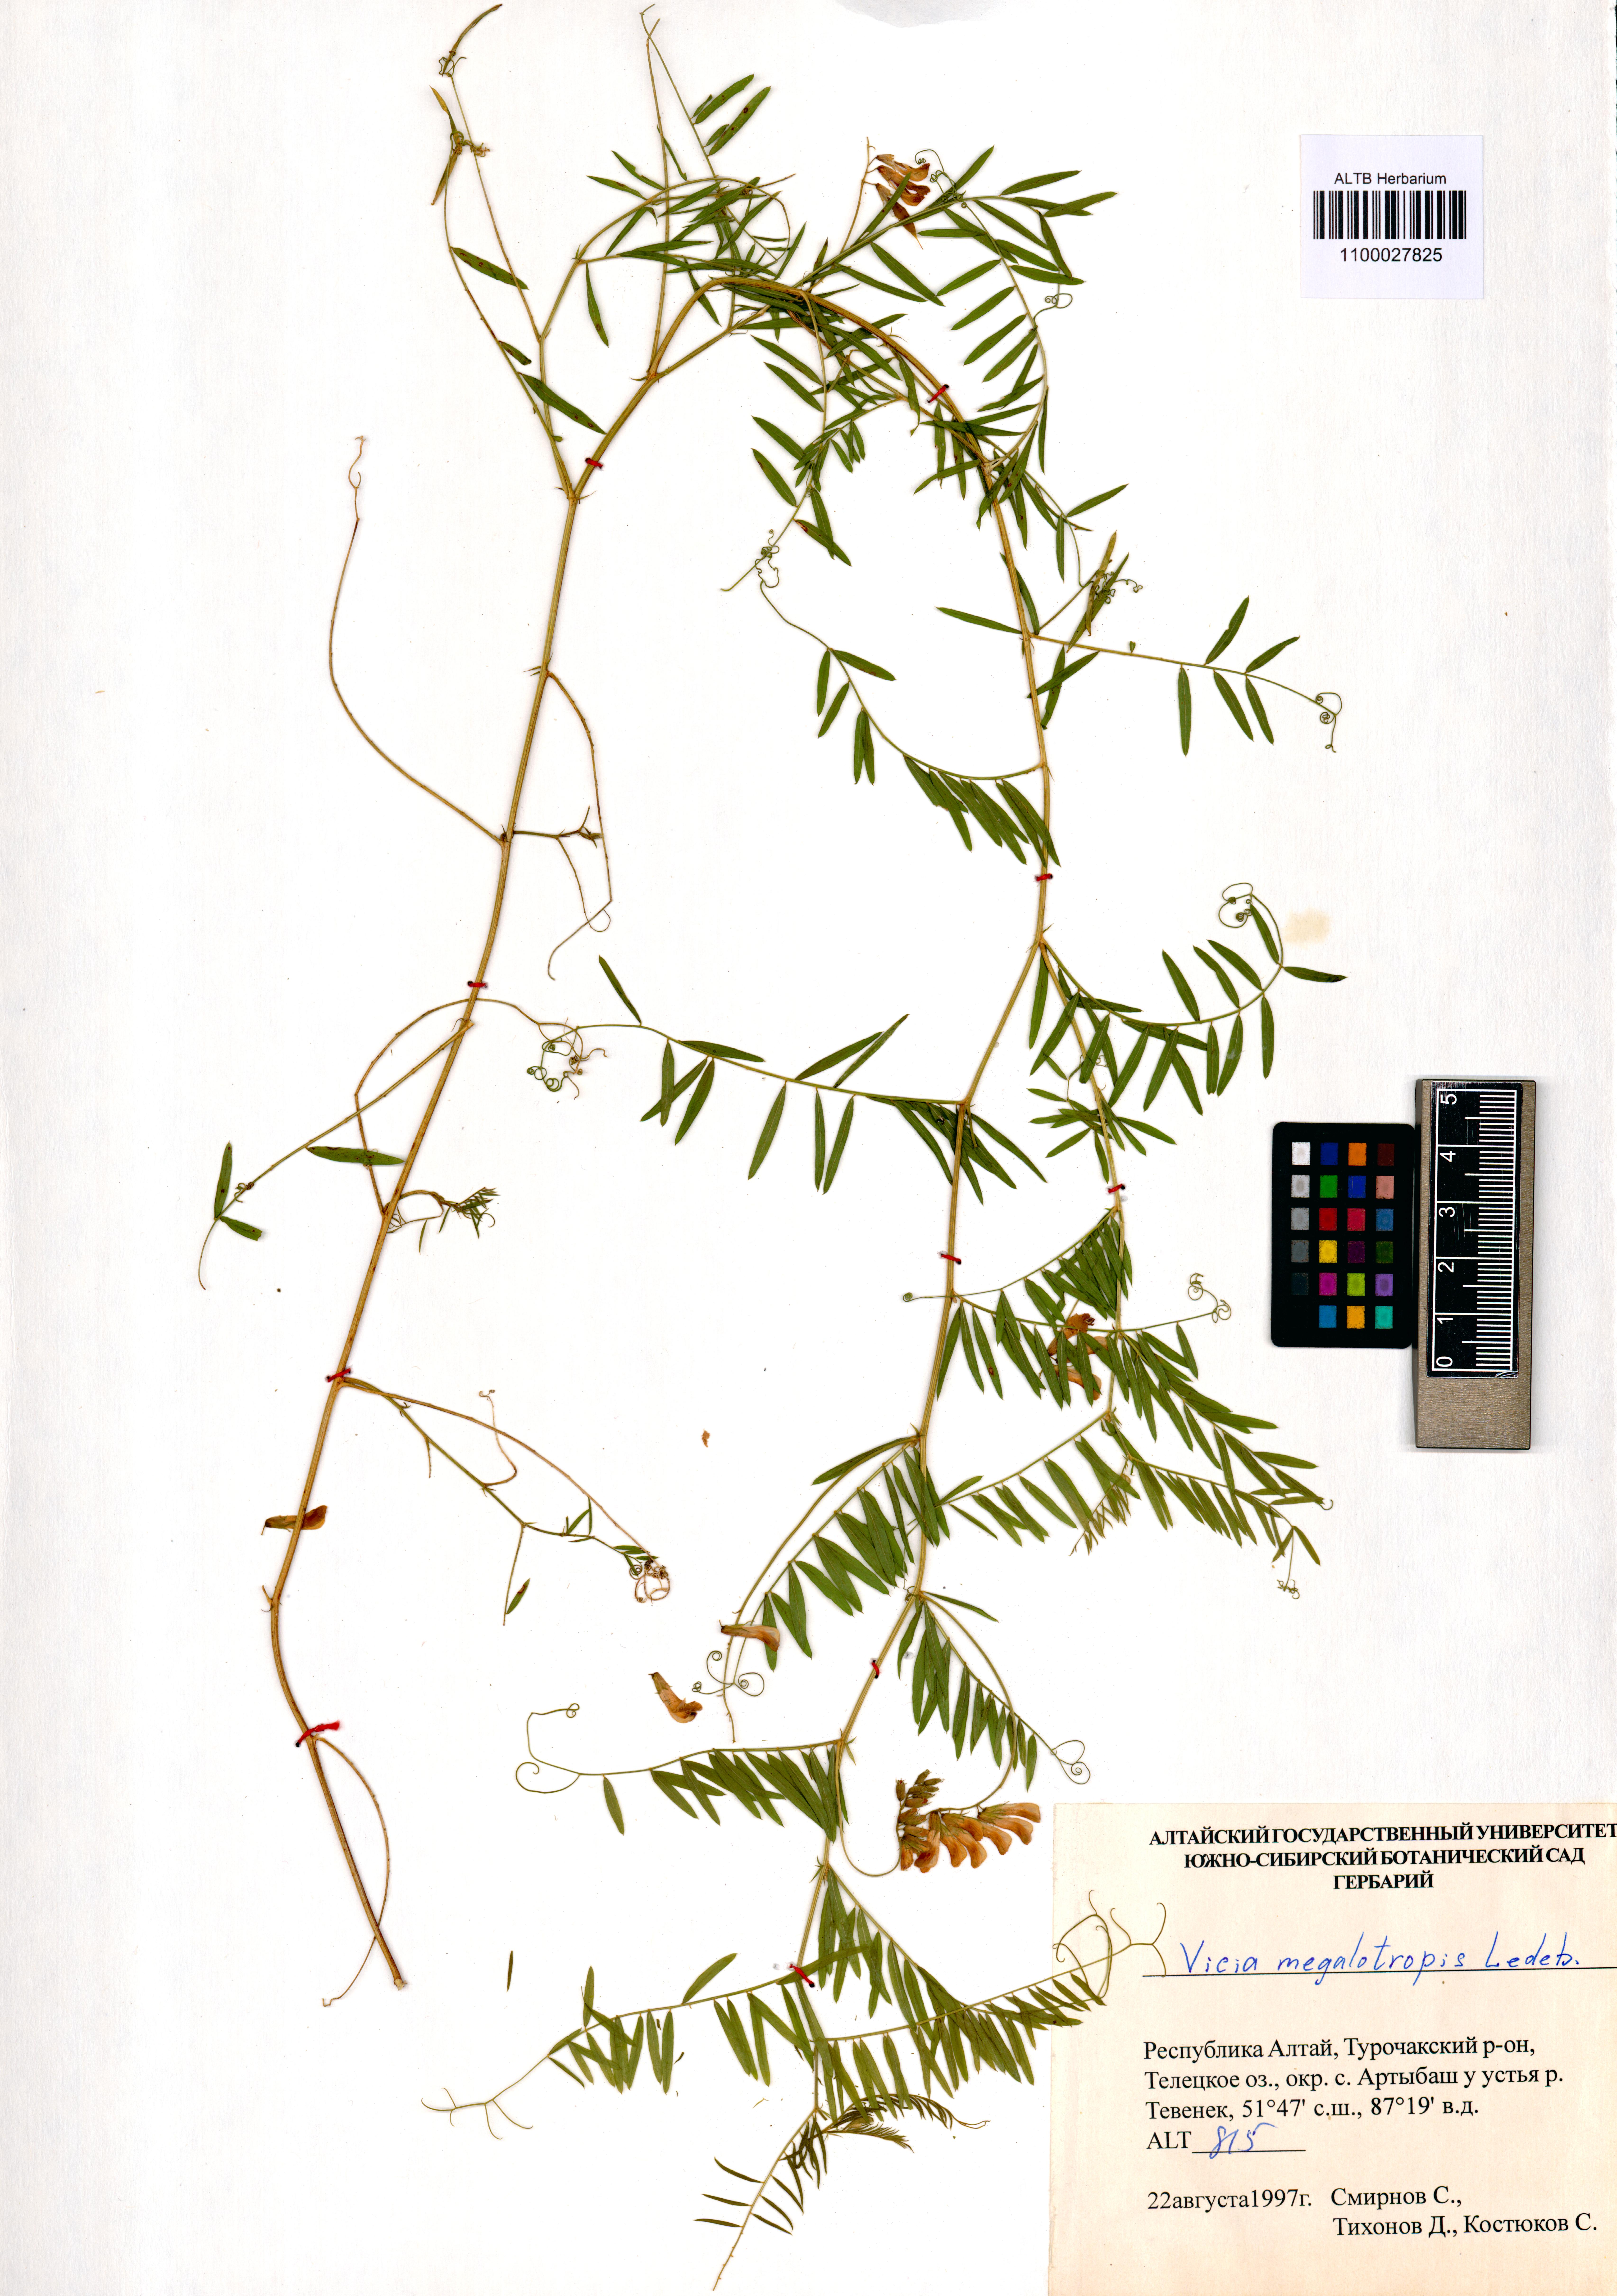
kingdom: Plantae
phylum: Tracheophyta
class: Magnoliopsida
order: Fabales
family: Fabaceae
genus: Vicia
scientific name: Vicia megalotropis
